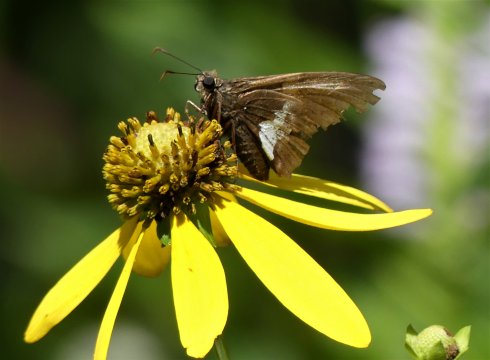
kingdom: Animalia
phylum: Arthropoda
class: Insecta
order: Lepidoptera
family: Hesperiidae
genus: Epargyreus
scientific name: Epargyreus clarus
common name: Silver-spotted Skipper
